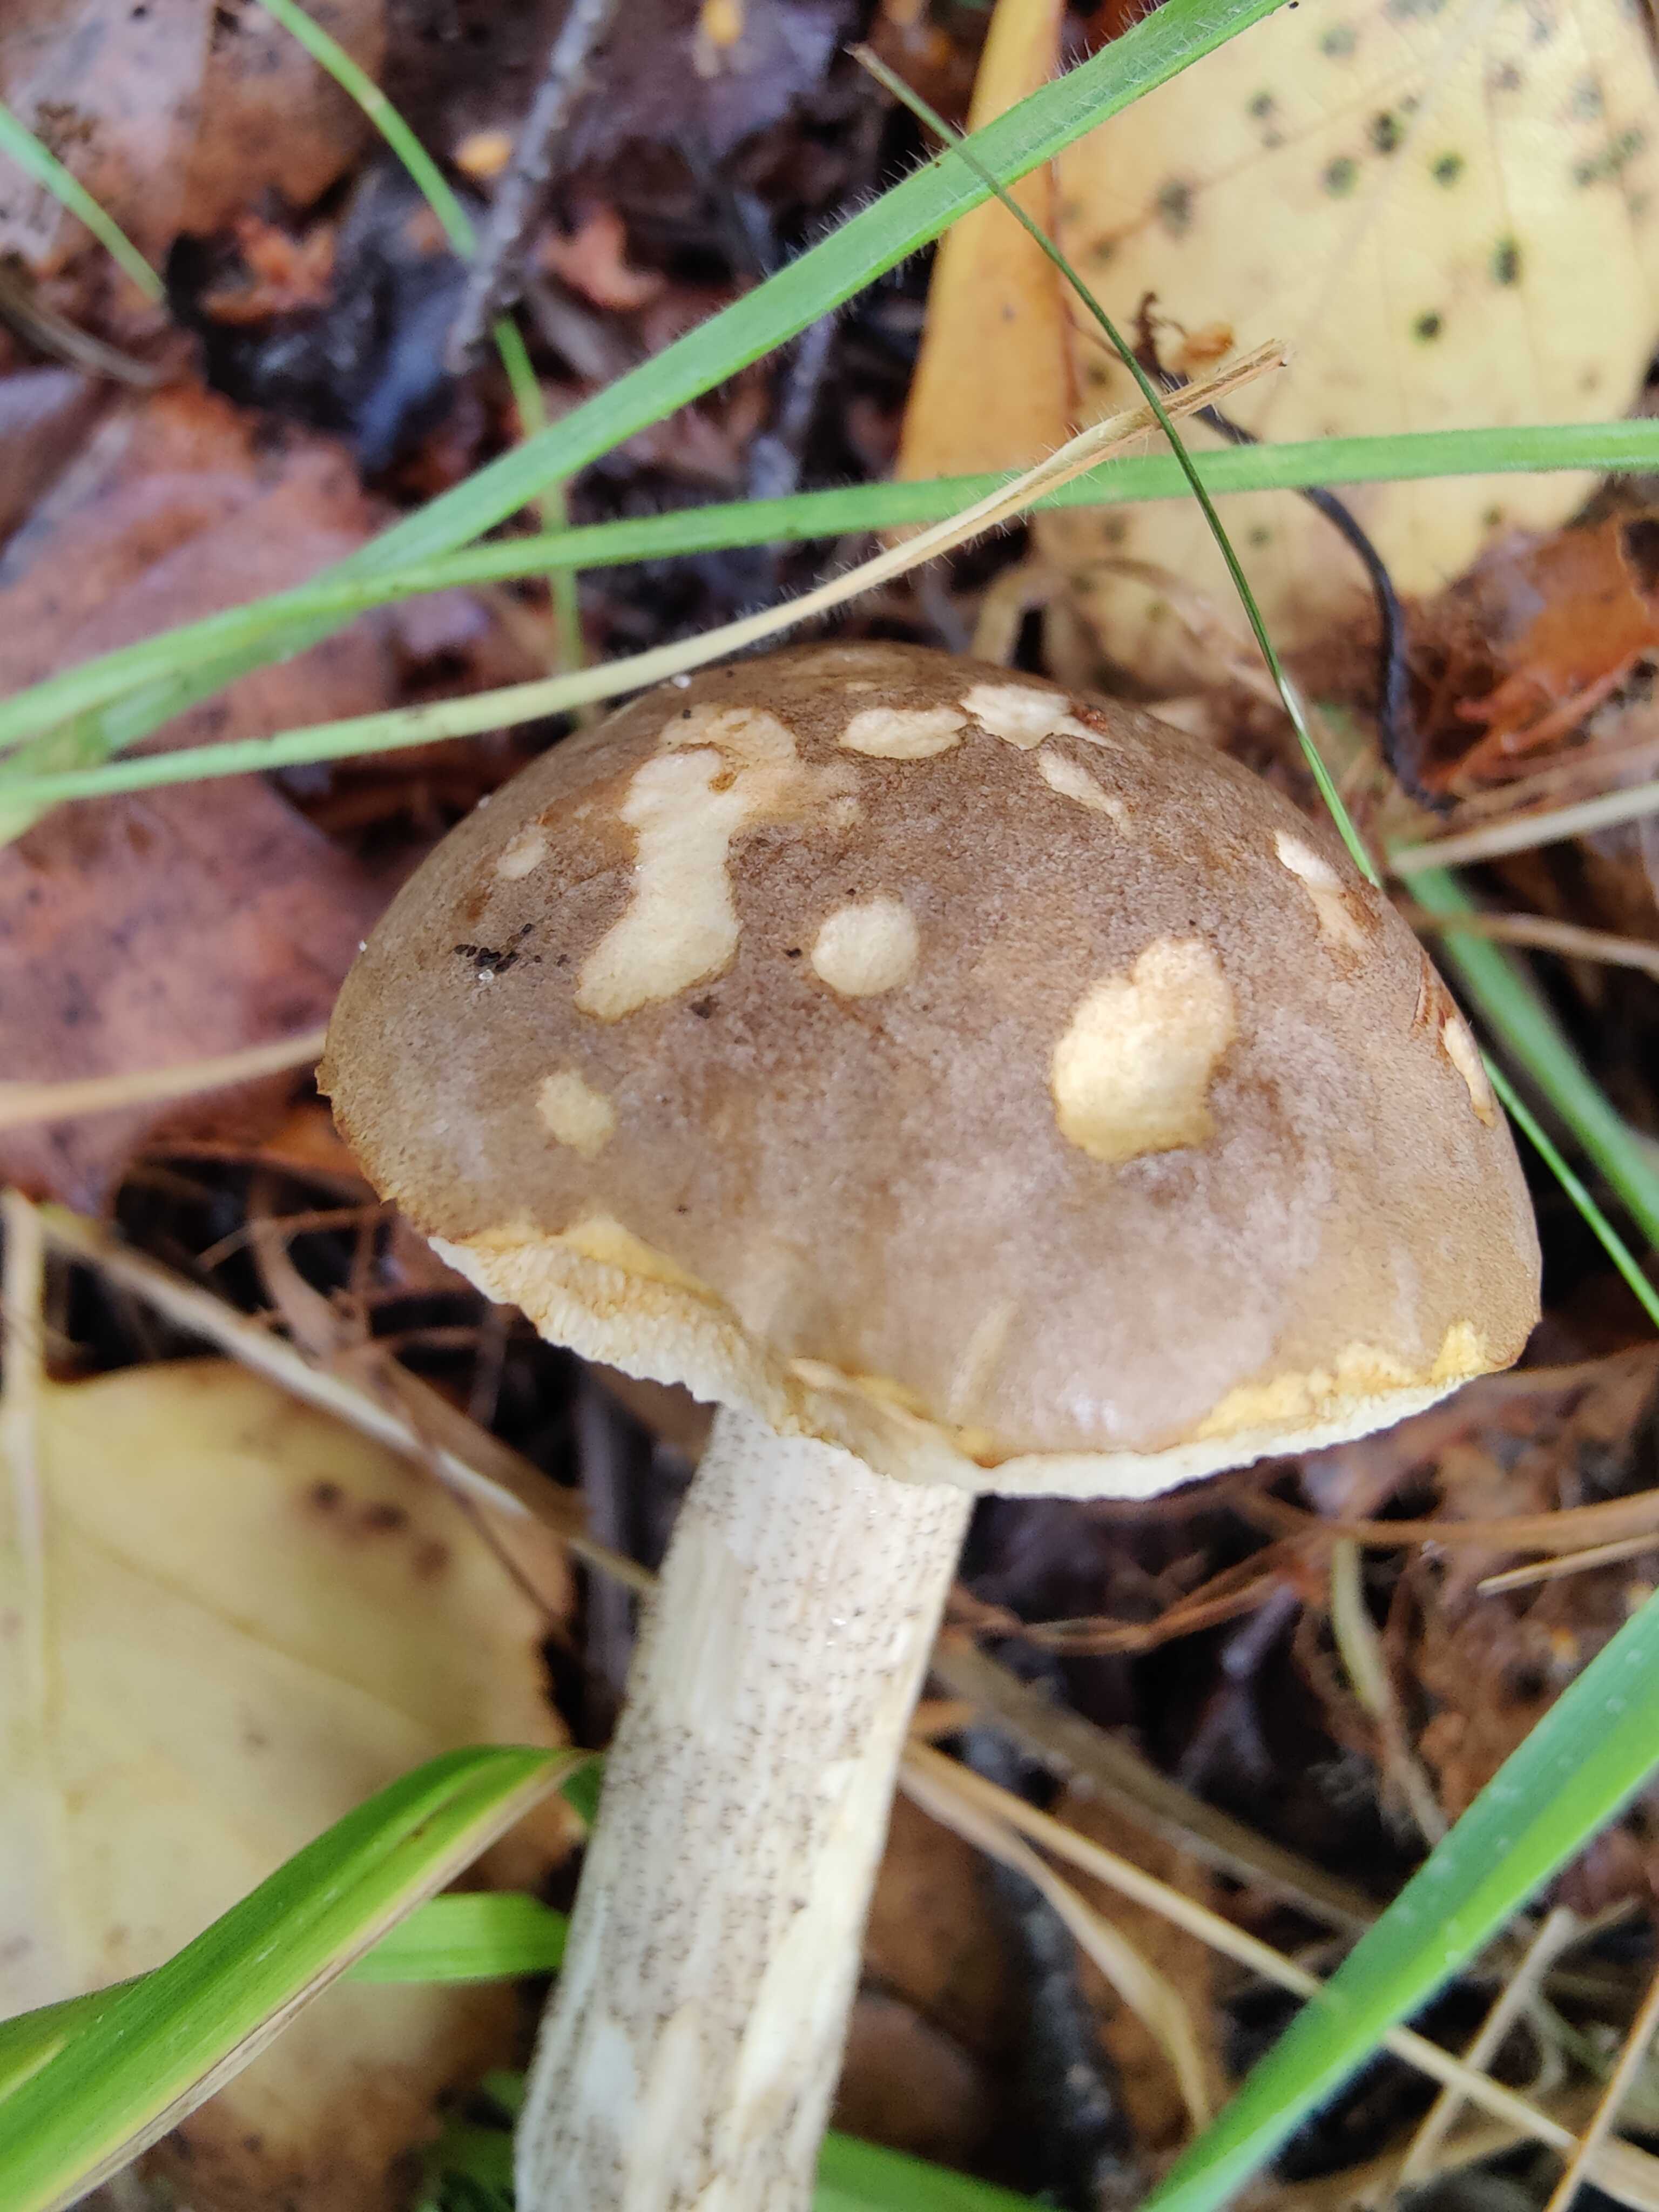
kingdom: Fungi
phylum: Basidiomycota
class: Agaricomycetes
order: Boletales
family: Boletaceae
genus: Leccinum
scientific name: Leccinum cyaneobasileucum
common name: almindelig skælrørhat
